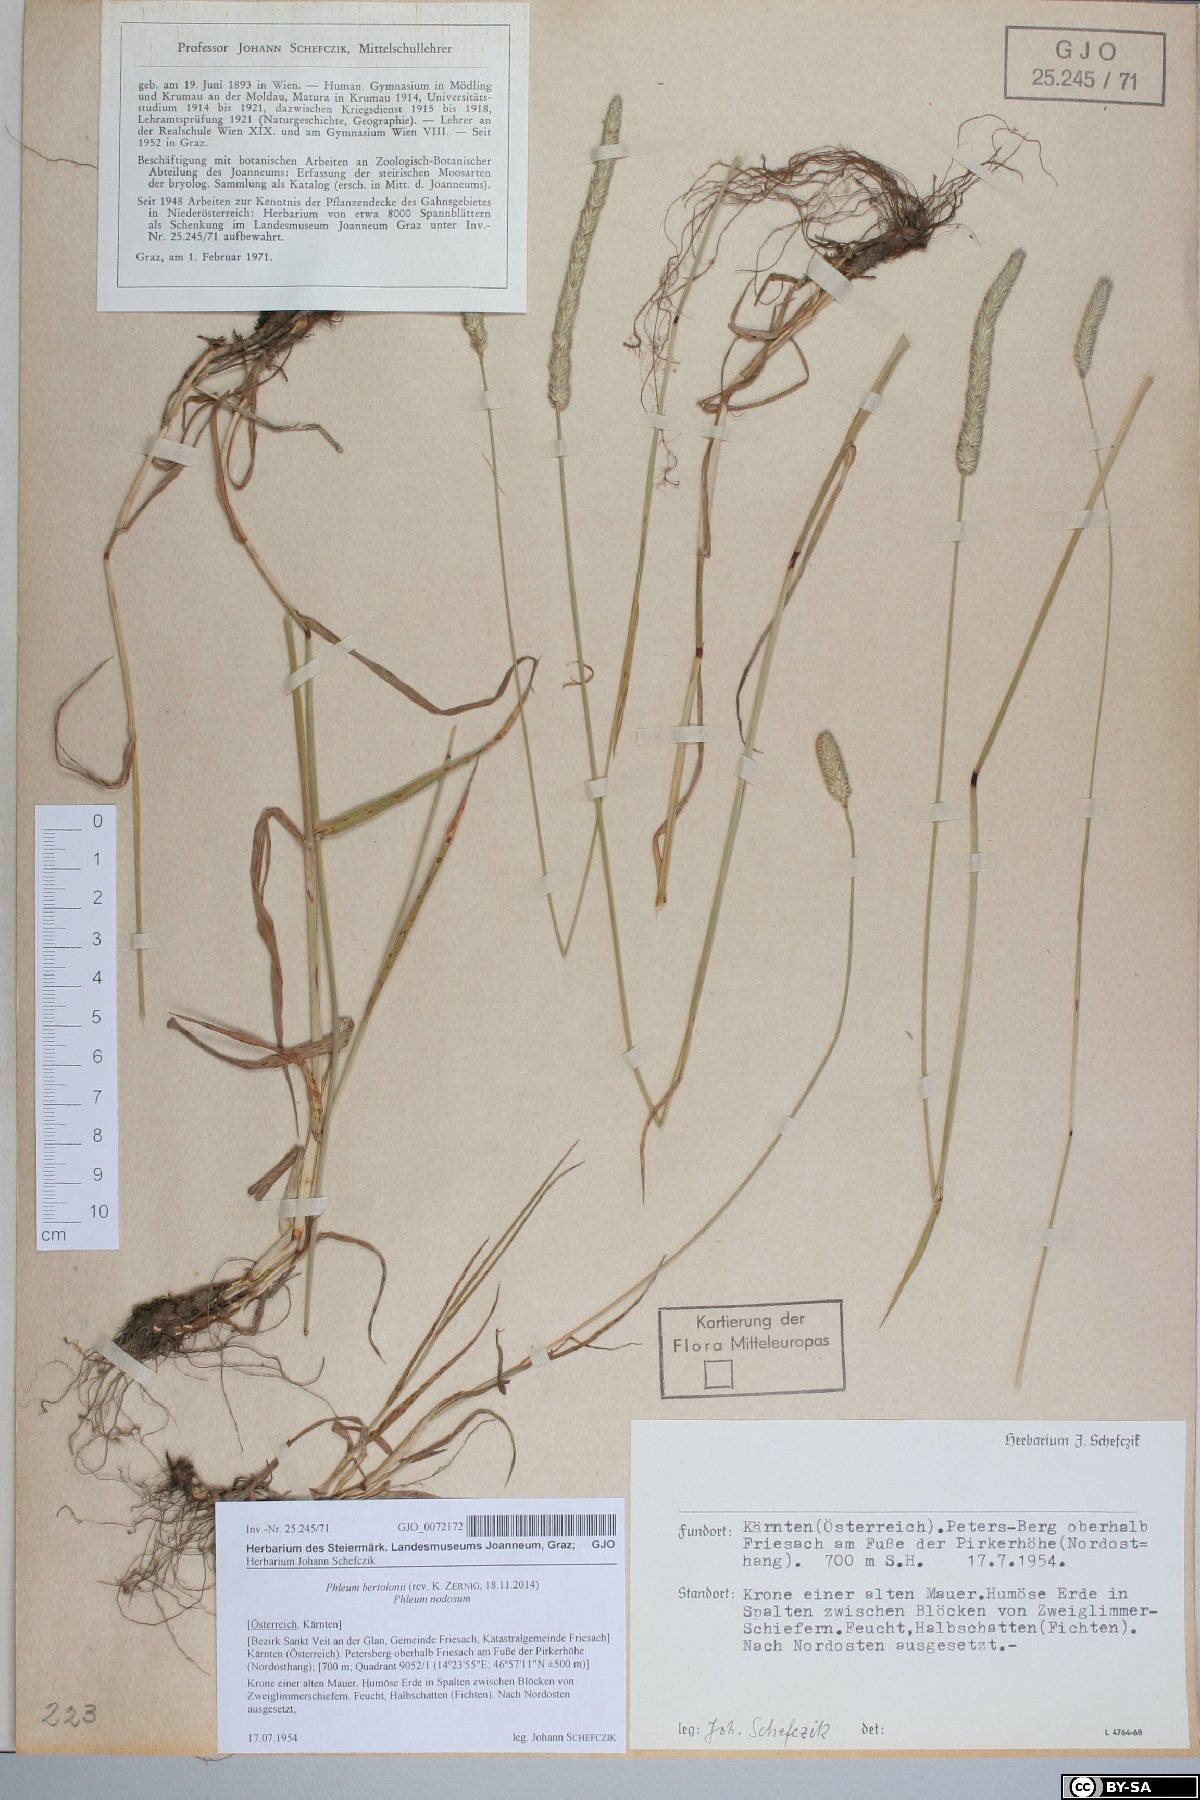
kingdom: Plantae
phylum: Tracheophyta
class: Liliopsida
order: Poales
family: Poaceae
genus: Phleum
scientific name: Phleum bertolonii
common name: Smaller cat's-tail
